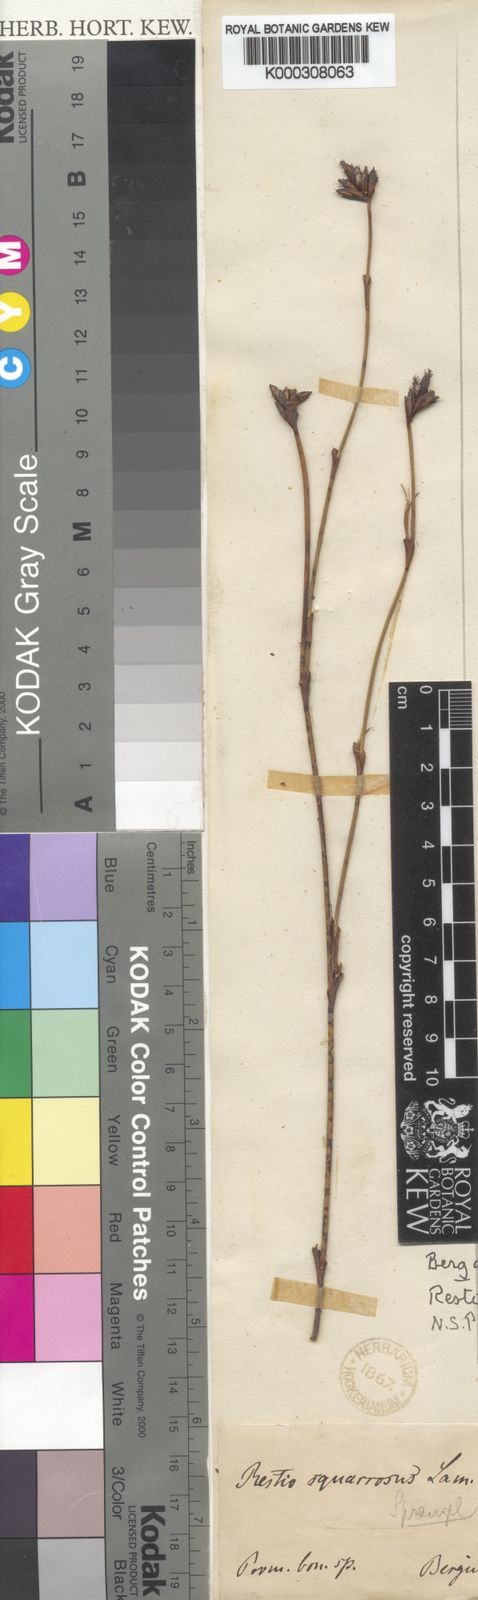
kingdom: Plantae
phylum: Tracheophyta
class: Liliopsida
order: Poales
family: Restionaceae
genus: Restio
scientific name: Restio capensis
